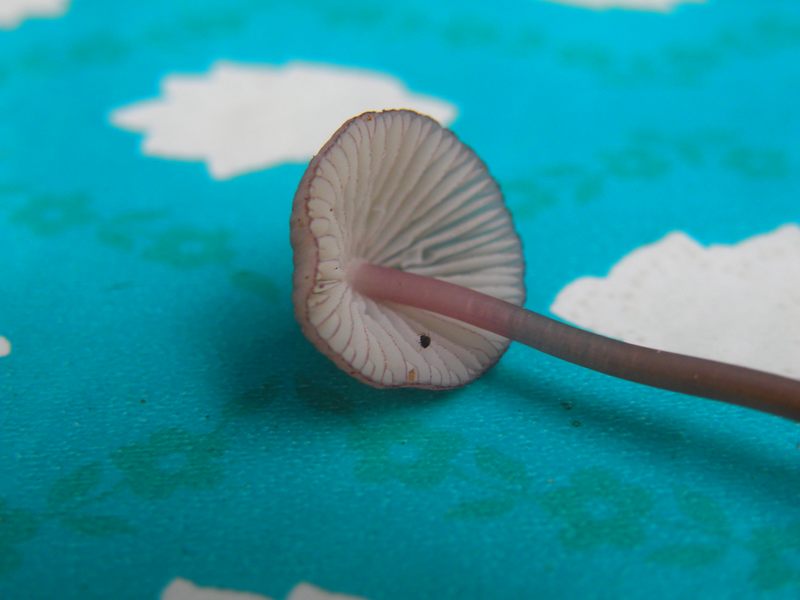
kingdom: Fungi
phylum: Basidiomycota
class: Agaricomycetes
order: Agaricales
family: Mycenaceae
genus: Mycena
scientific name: Mycena purpureofusca
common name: purpur-huesvamp
